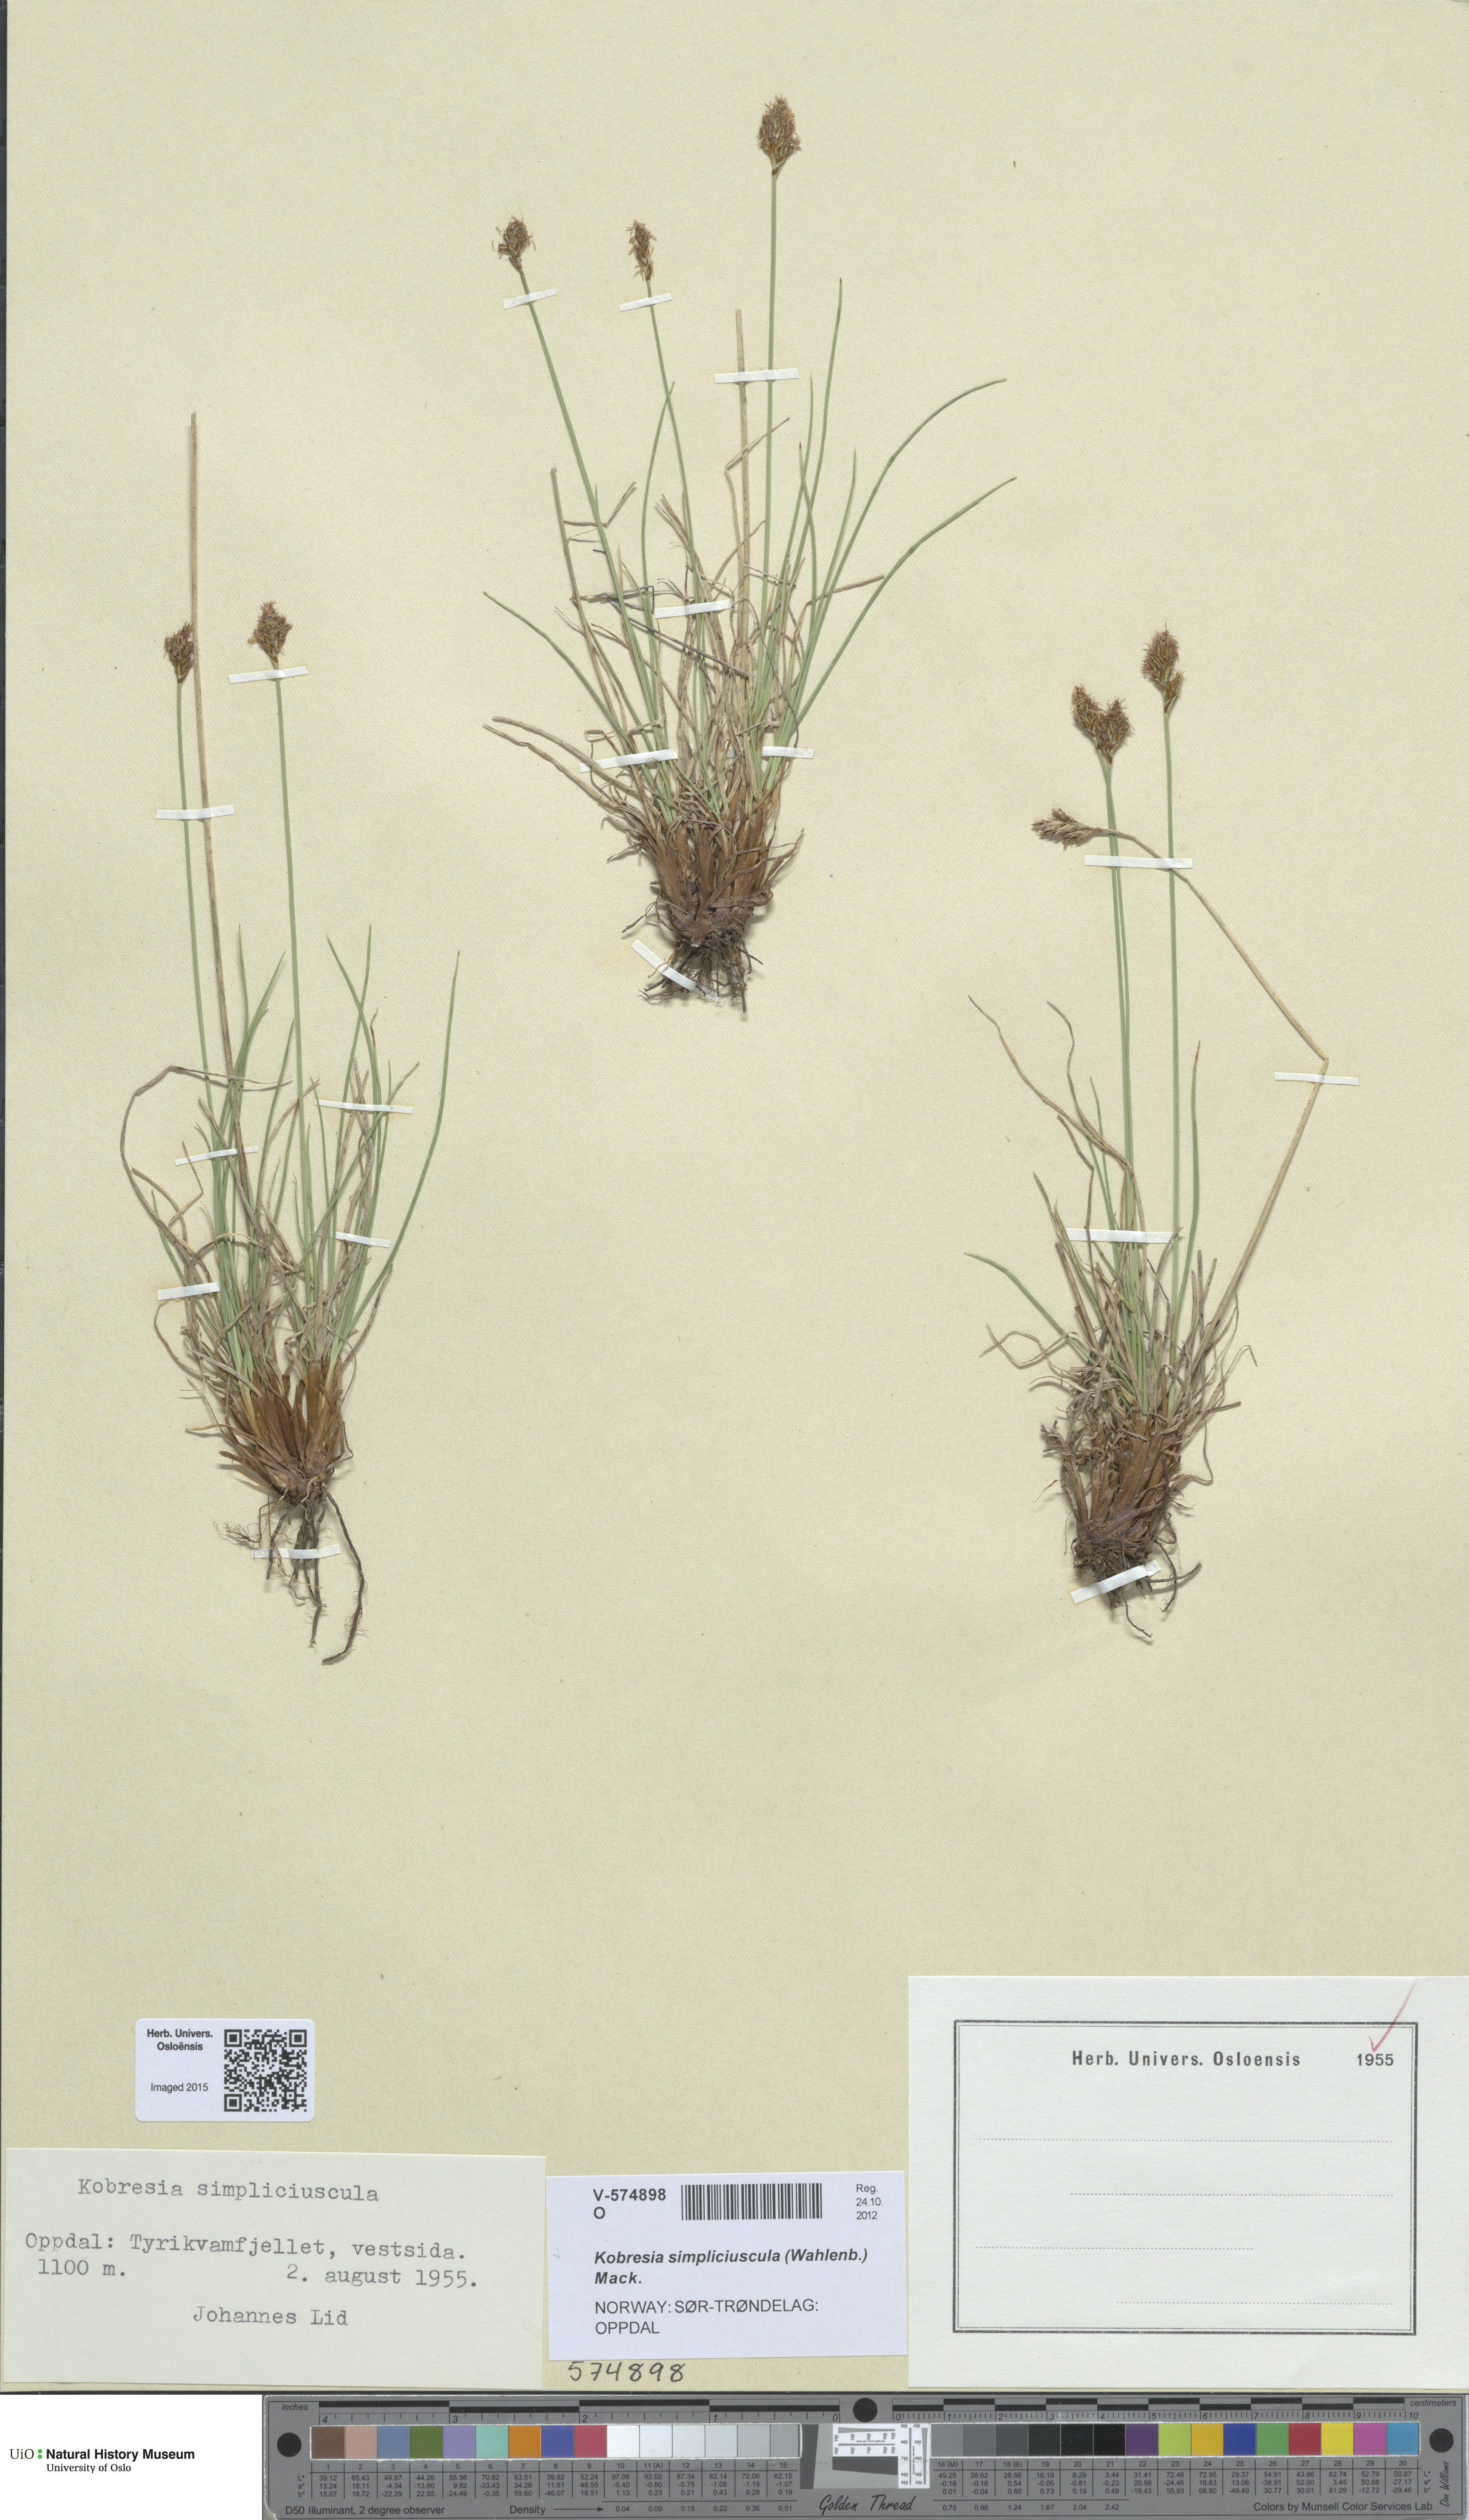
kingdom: Plantae
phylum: Tracheophyta
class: Liliopsida
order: Poales
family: Cyperaceae
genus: Carex
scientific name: Carex simpliciuscula
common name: Simple bog sedge
